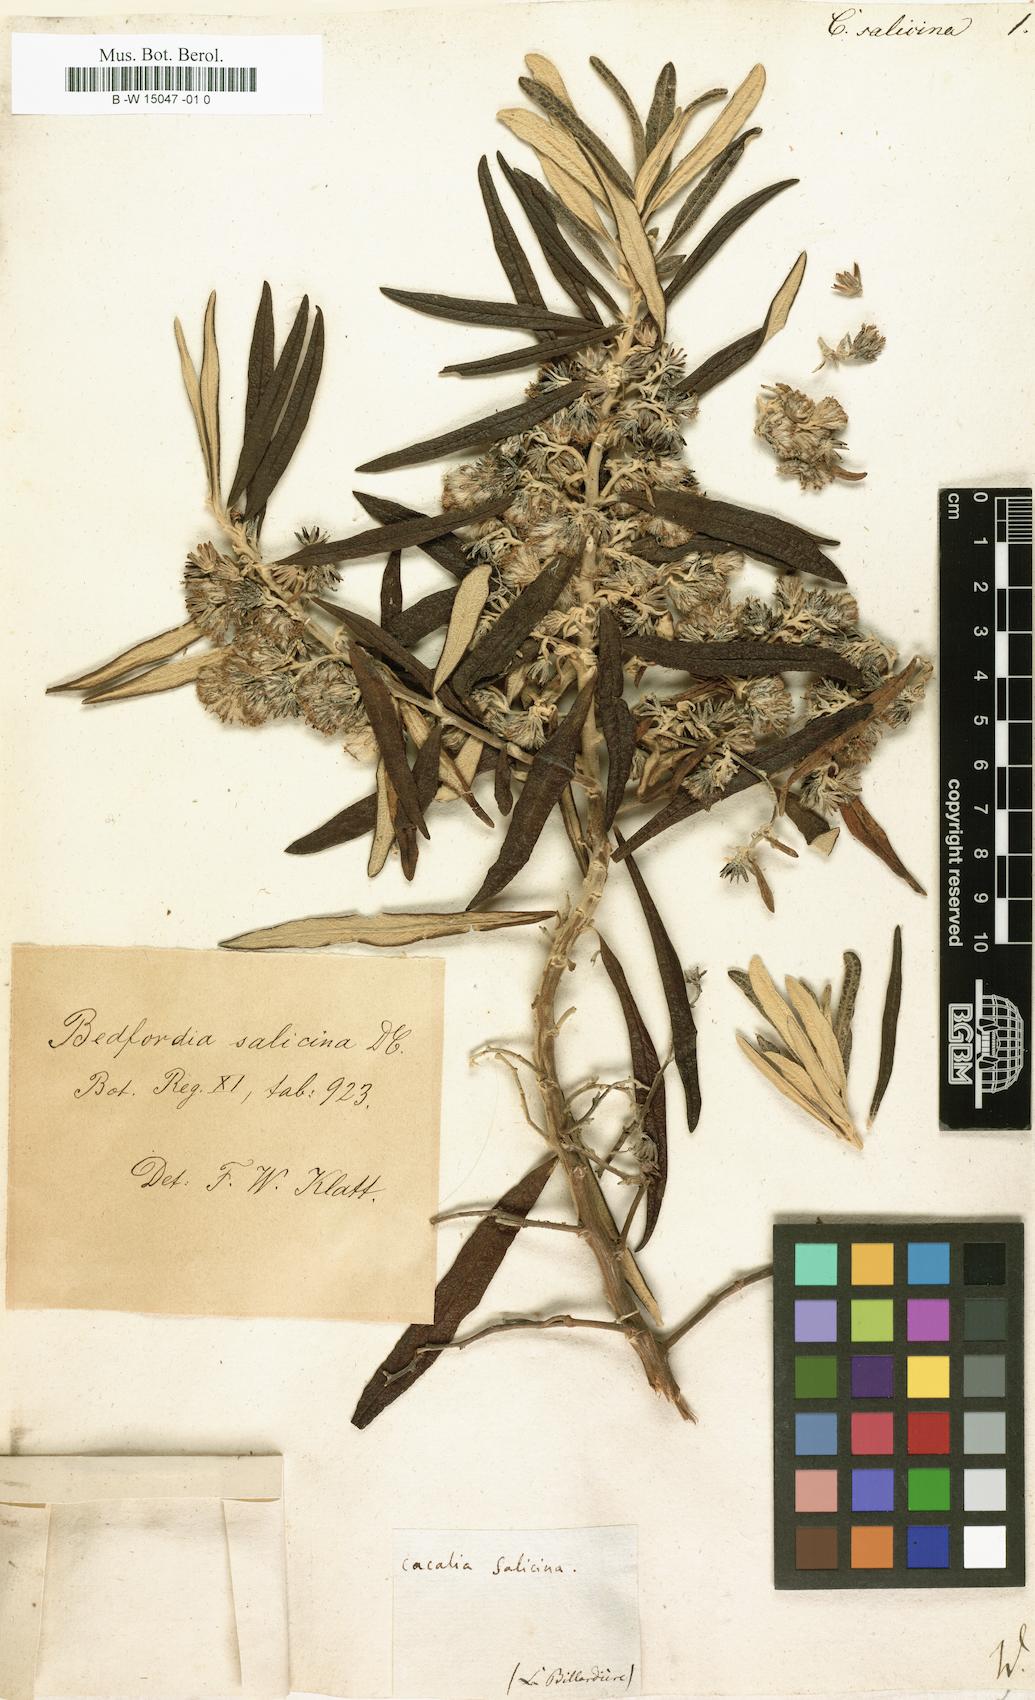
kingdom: Plantae
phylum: Tracheophyta
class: Magnoliopsida
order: Asterales
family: Asteraceae
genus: Bedfordia
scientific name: Bedfordia salicina
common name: Blanketleaf
